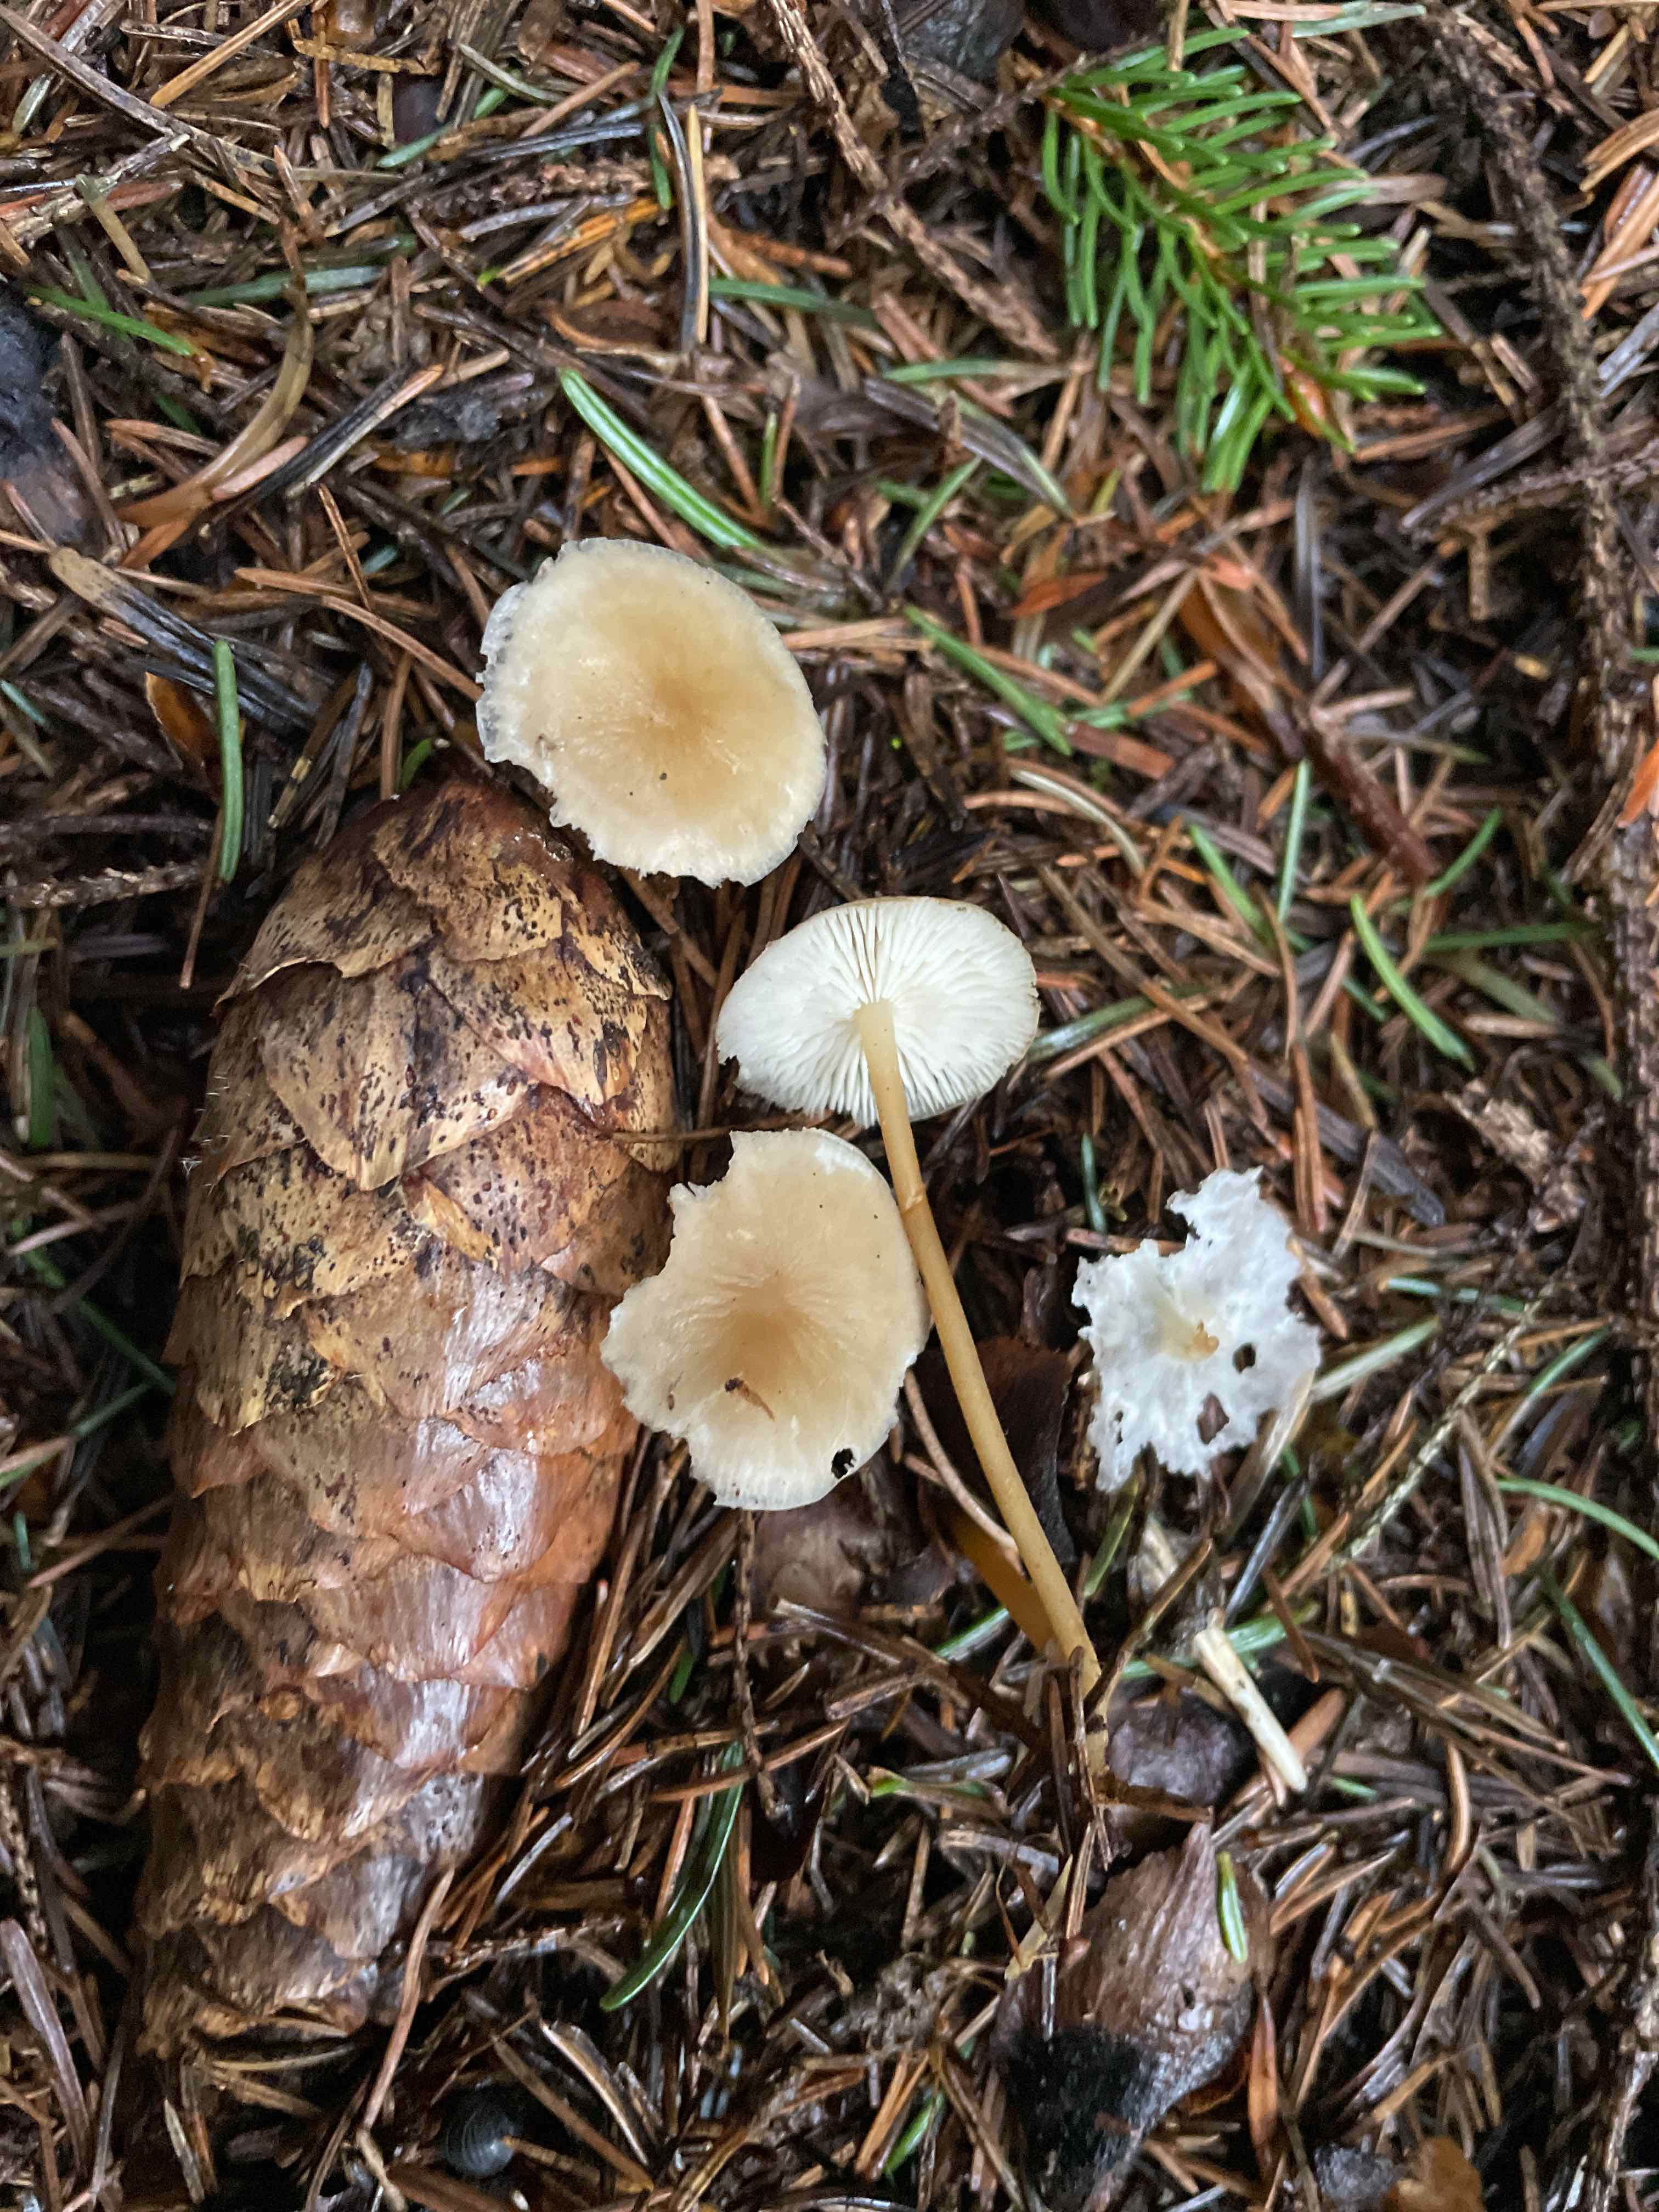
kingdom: Fungi
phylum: Basidiomycota
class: Agaricomycetes
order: Agaricales
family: Physalacriaceae
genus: Strobilurus
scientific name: Strobilurus esculentus
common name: gran-koglehat
